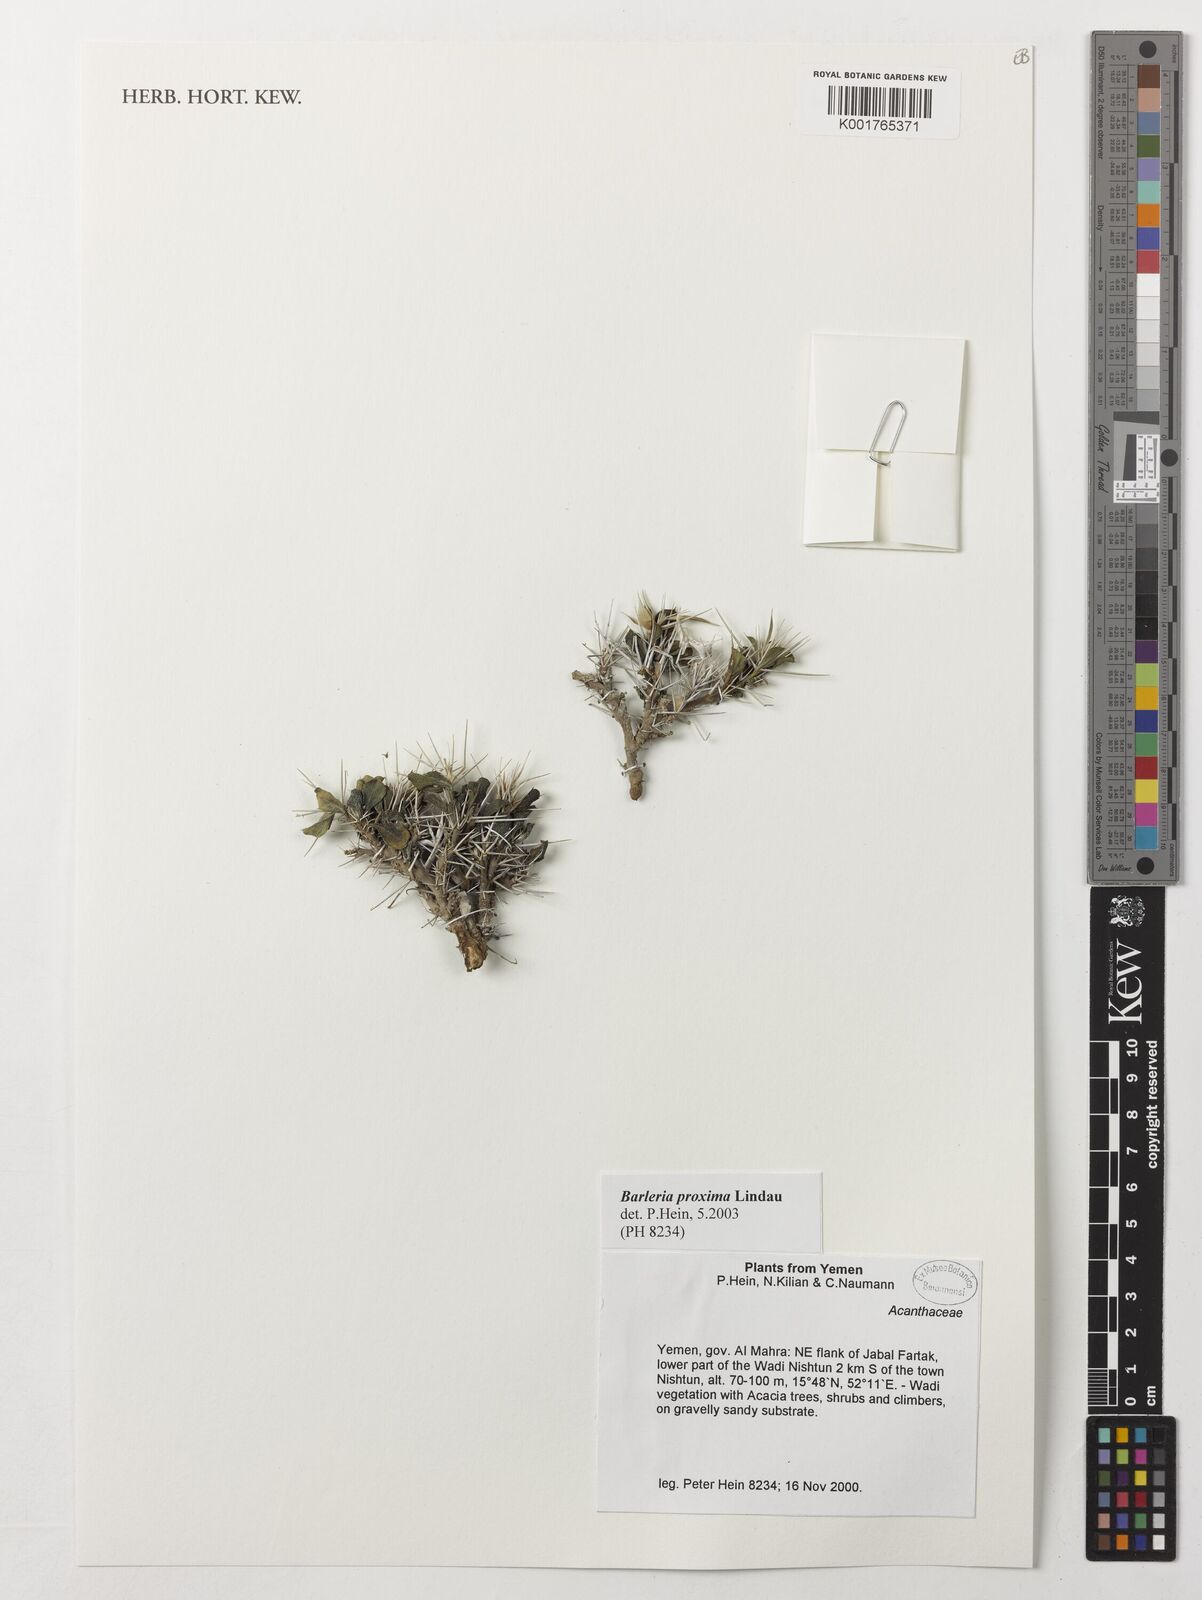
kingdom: Plantae
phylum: Tracheophyta
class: Magnoliopsida
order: Lamiales
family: Acanthaceae
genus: Barleria
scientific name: Barleria proxima
